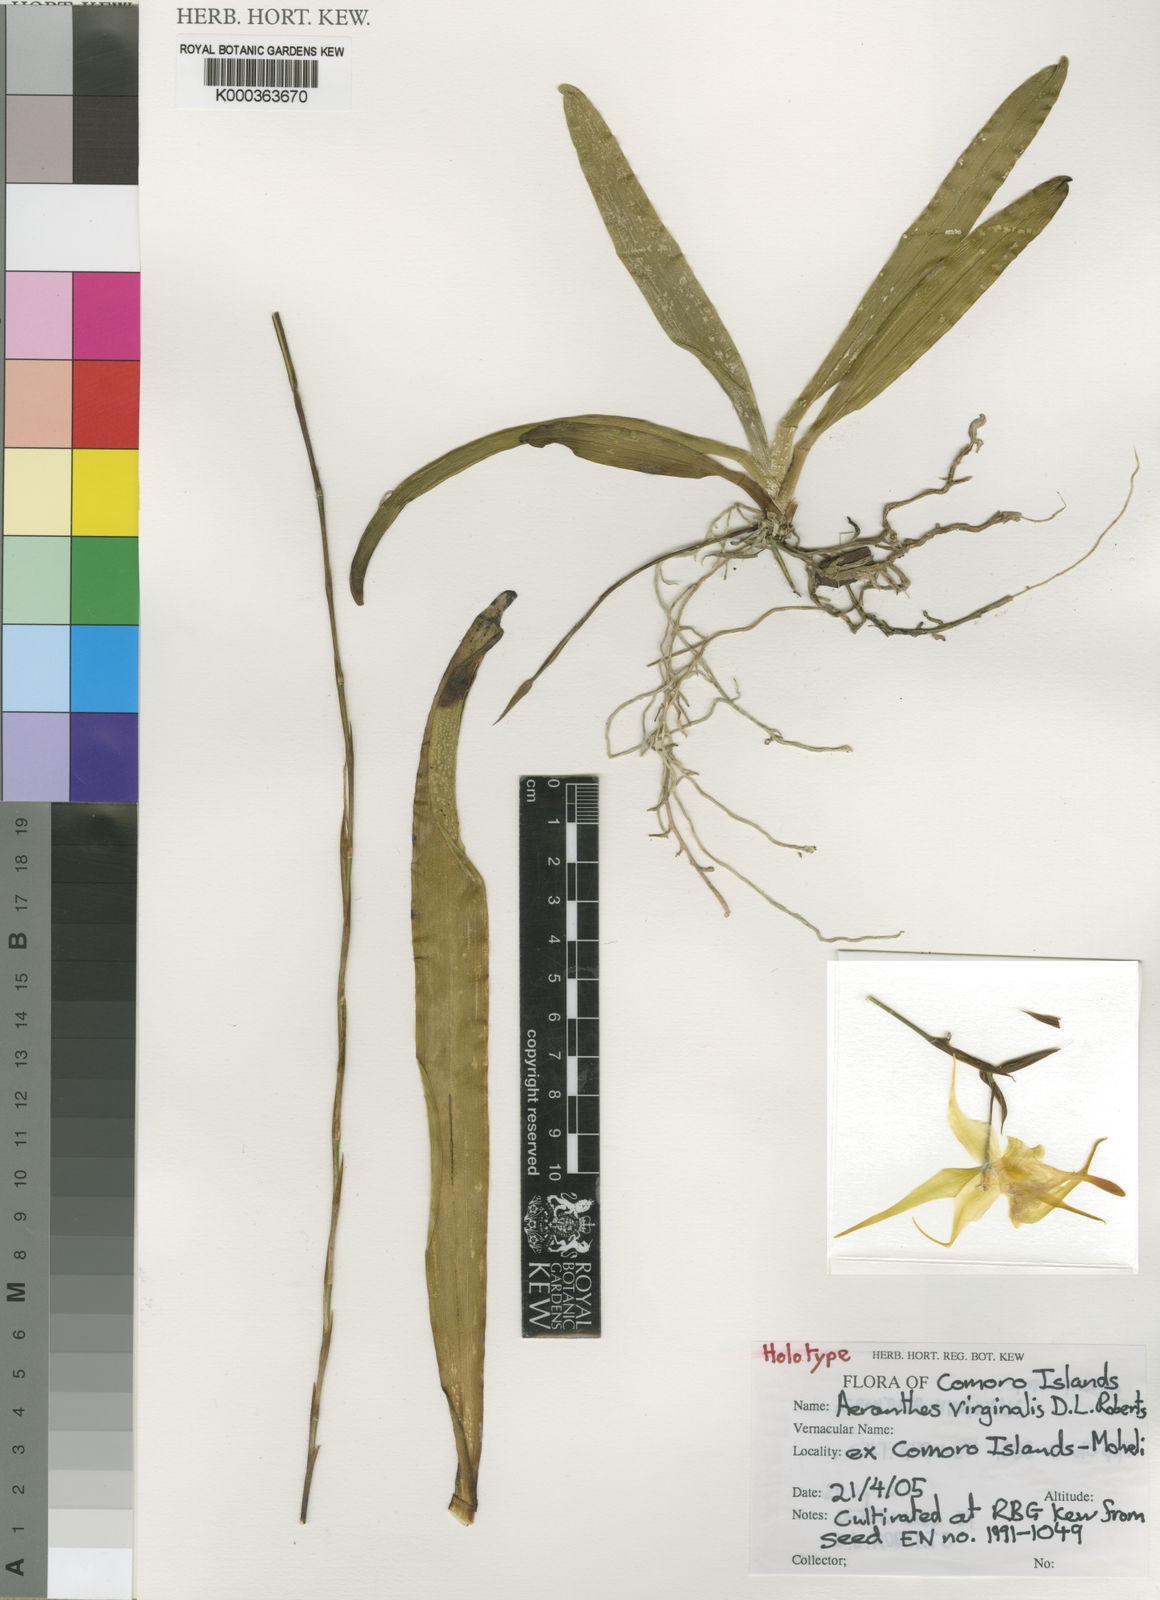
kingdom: Plantae
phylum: Tracheophyta
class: Liliopsida
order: Asparagales
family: Orchidaceae
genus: Aeranthes
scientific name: Aeranthes virginalis
